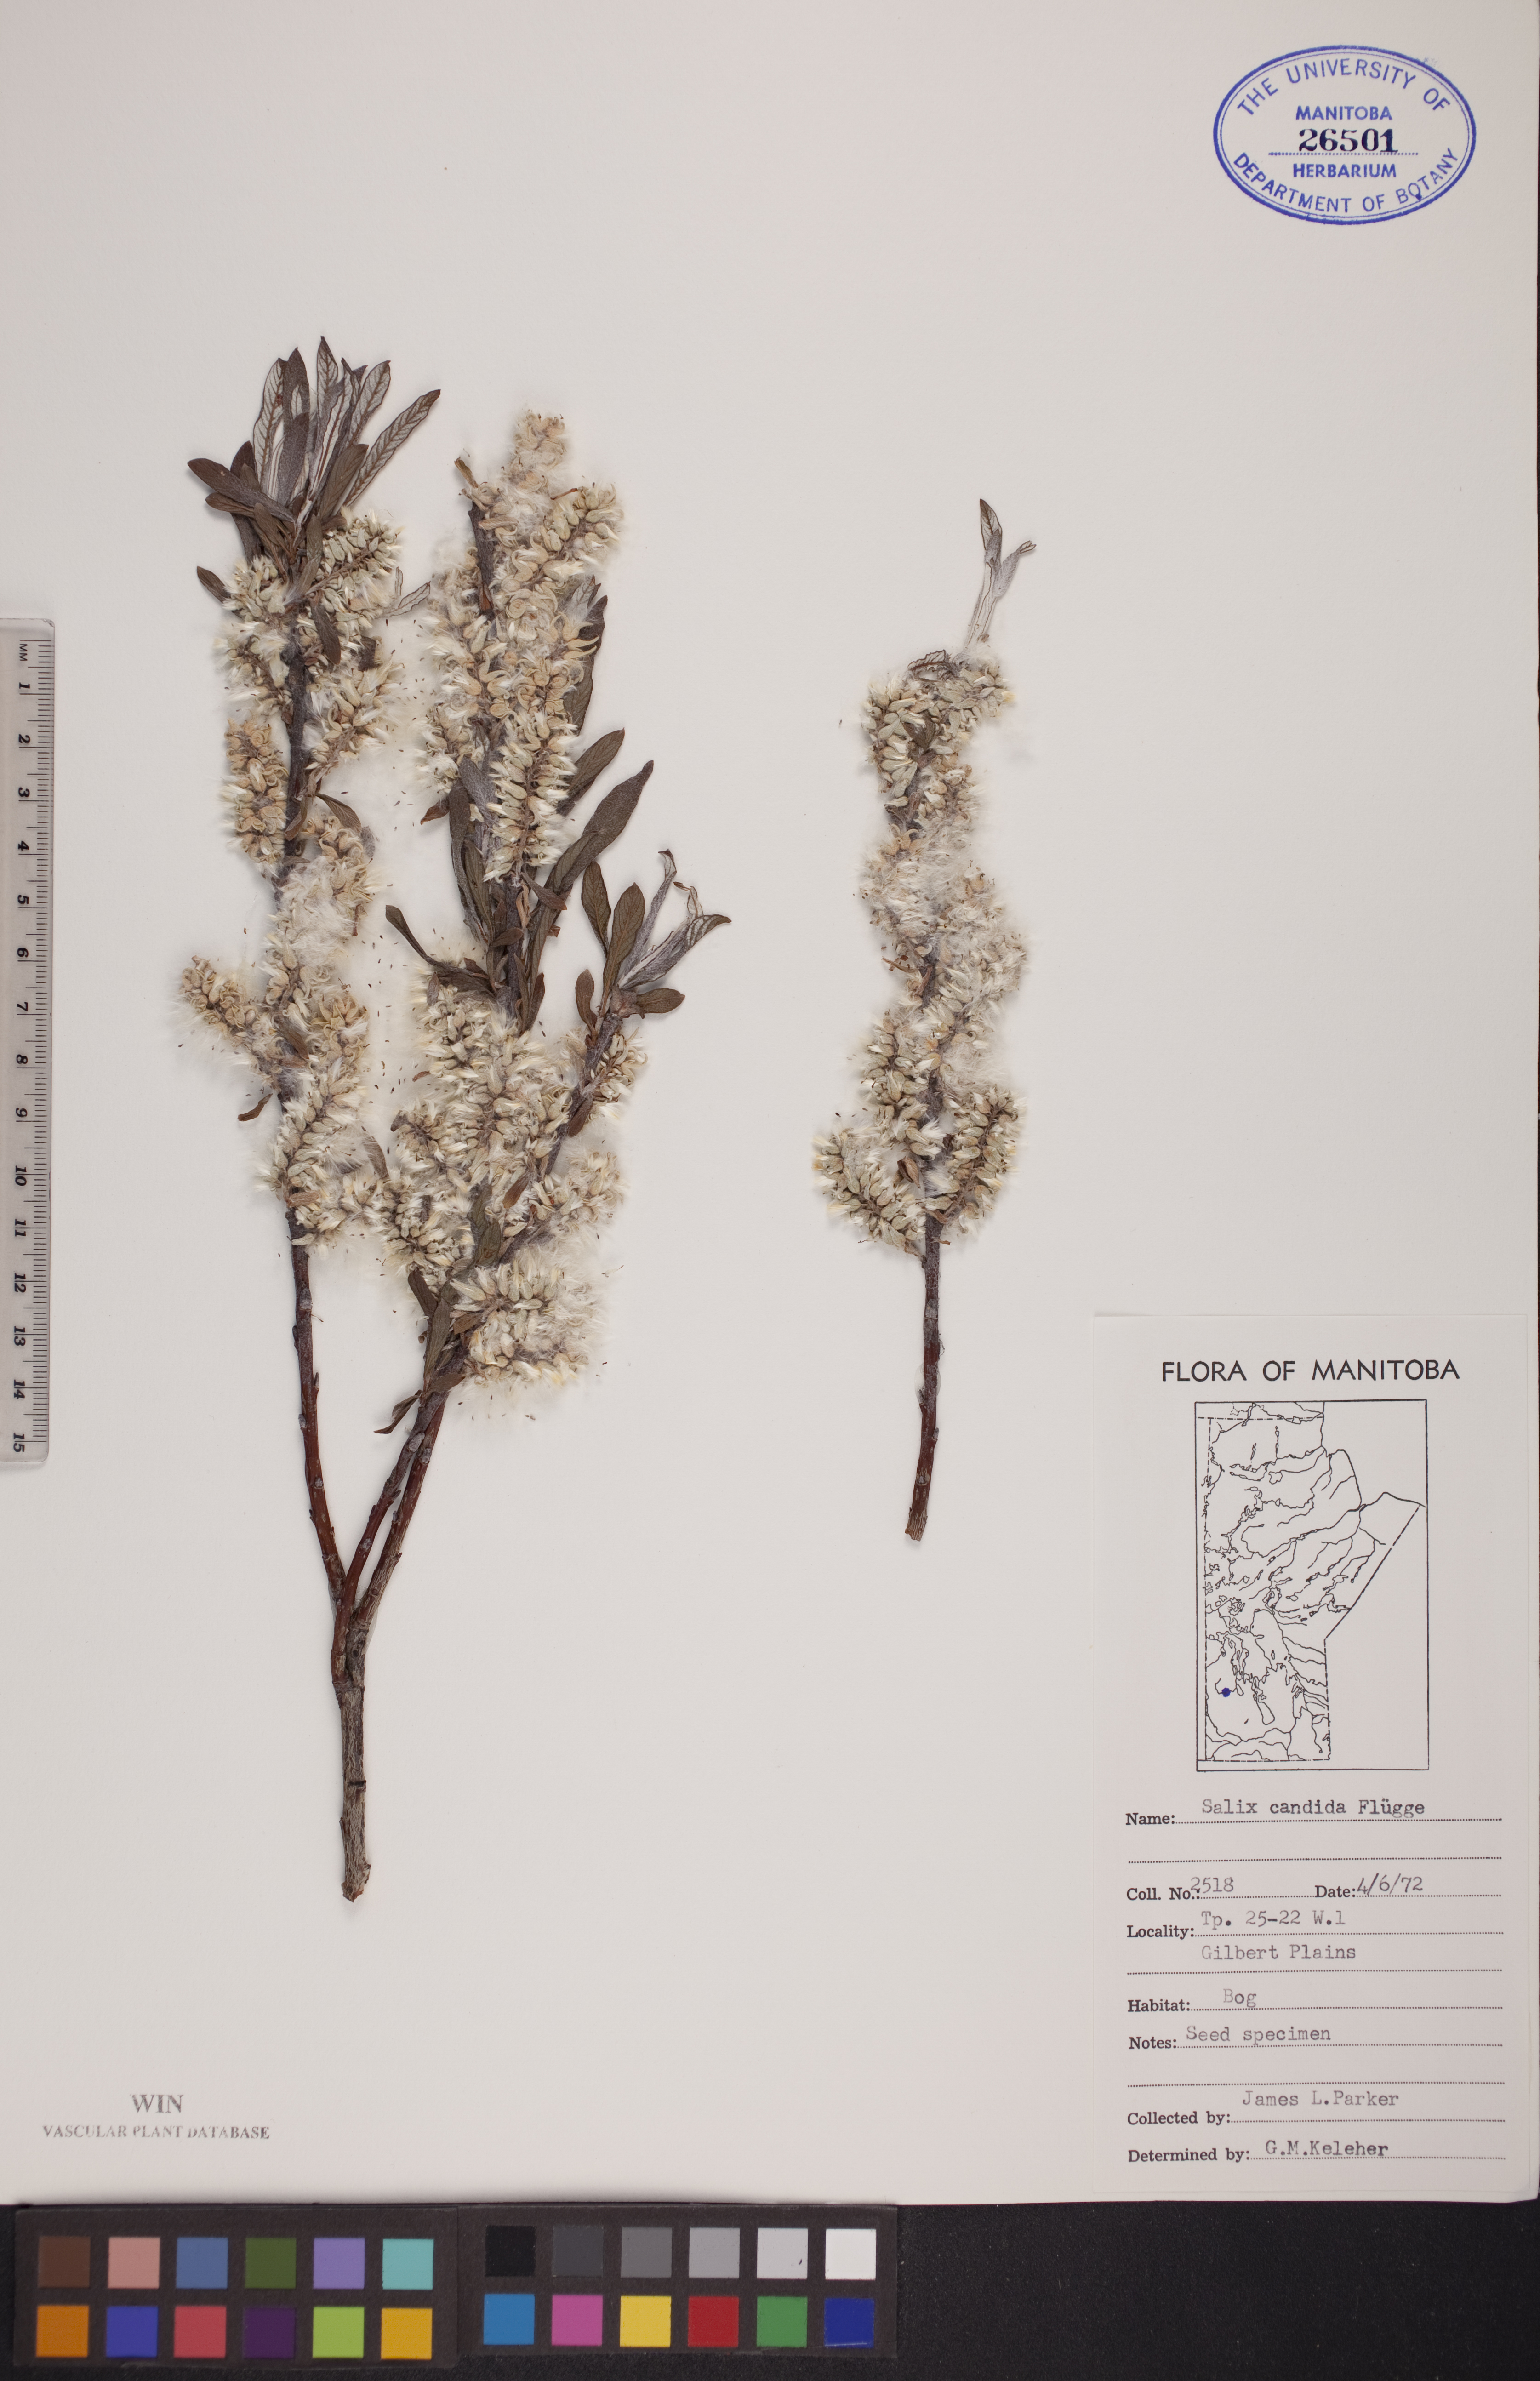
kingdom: Plantae
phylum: Tracheophyta
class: Magnoliopsida
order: Malpighiales
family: Salicaceae
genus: Salix
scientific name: Salix candida
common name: Hoary willow
